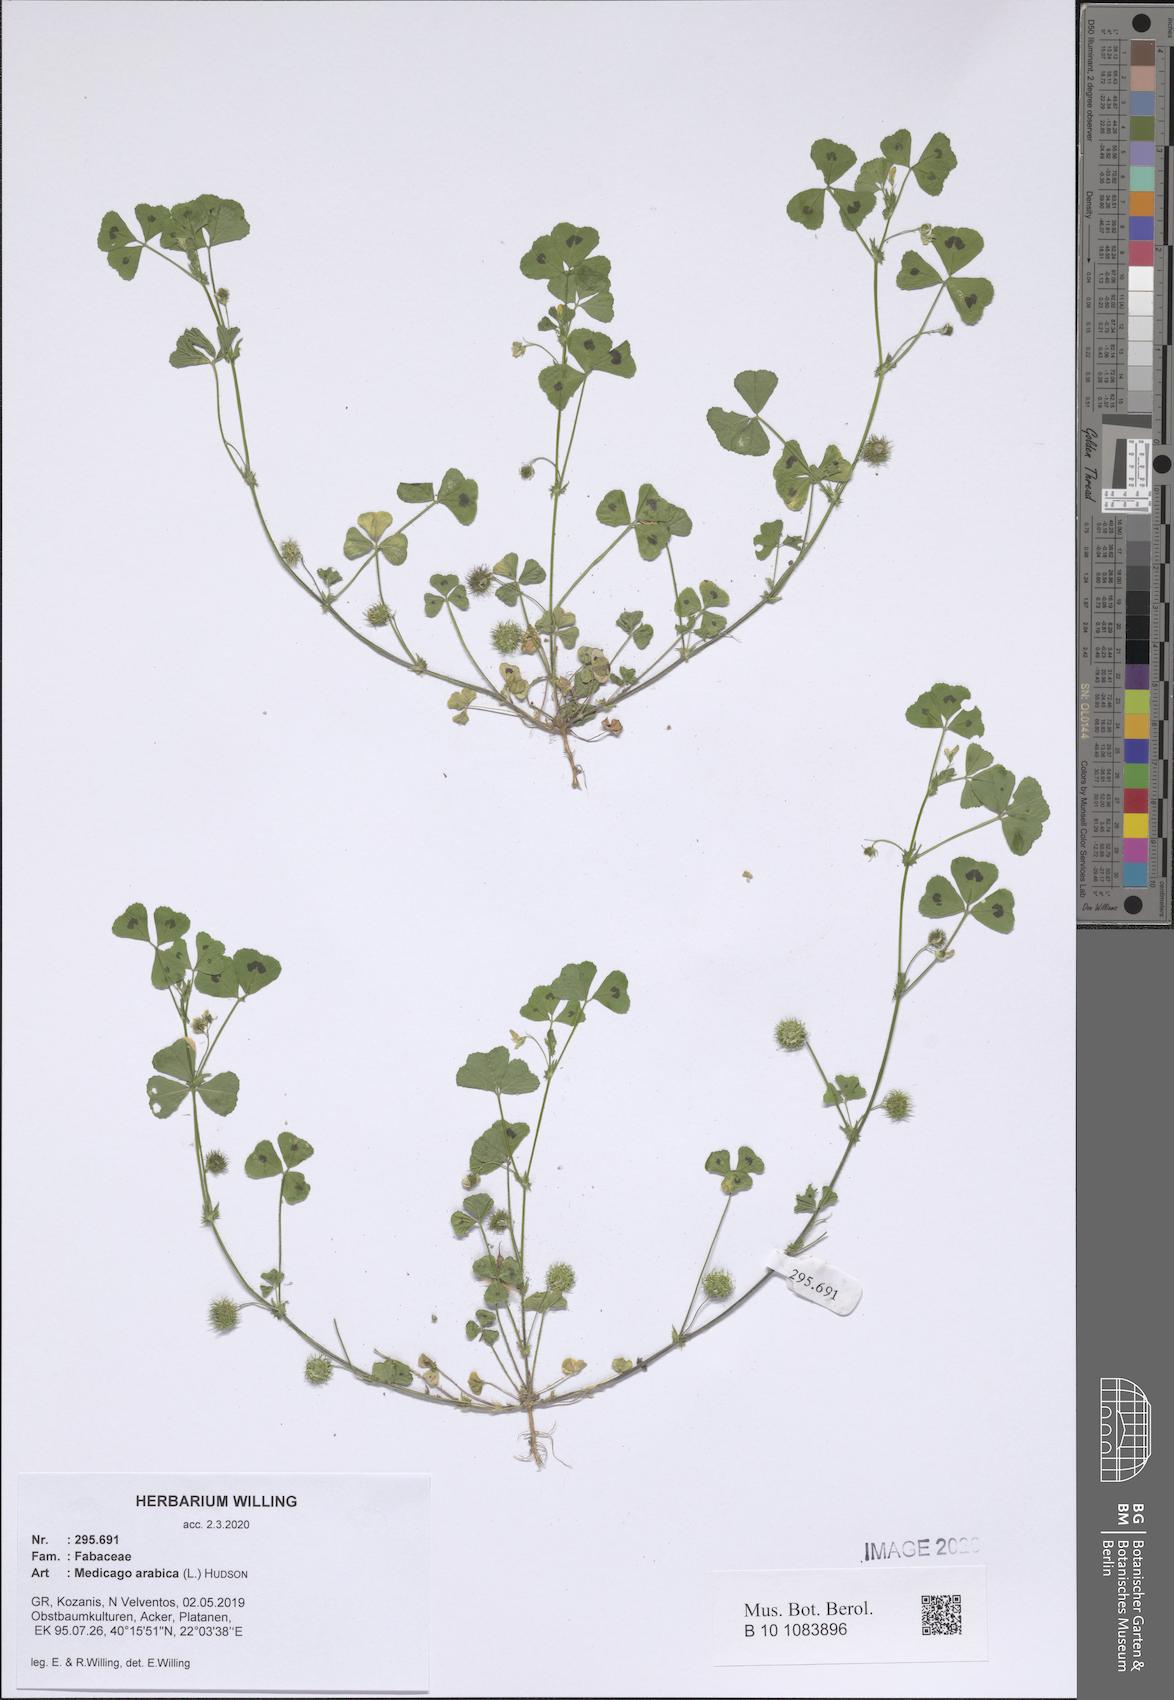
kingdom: Plantae
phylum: Tracheophyta
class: Magnoliopsida
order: Fabales
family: Fabaceae
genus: Medicago
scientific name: Medicago arabica
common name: Spotted medick
